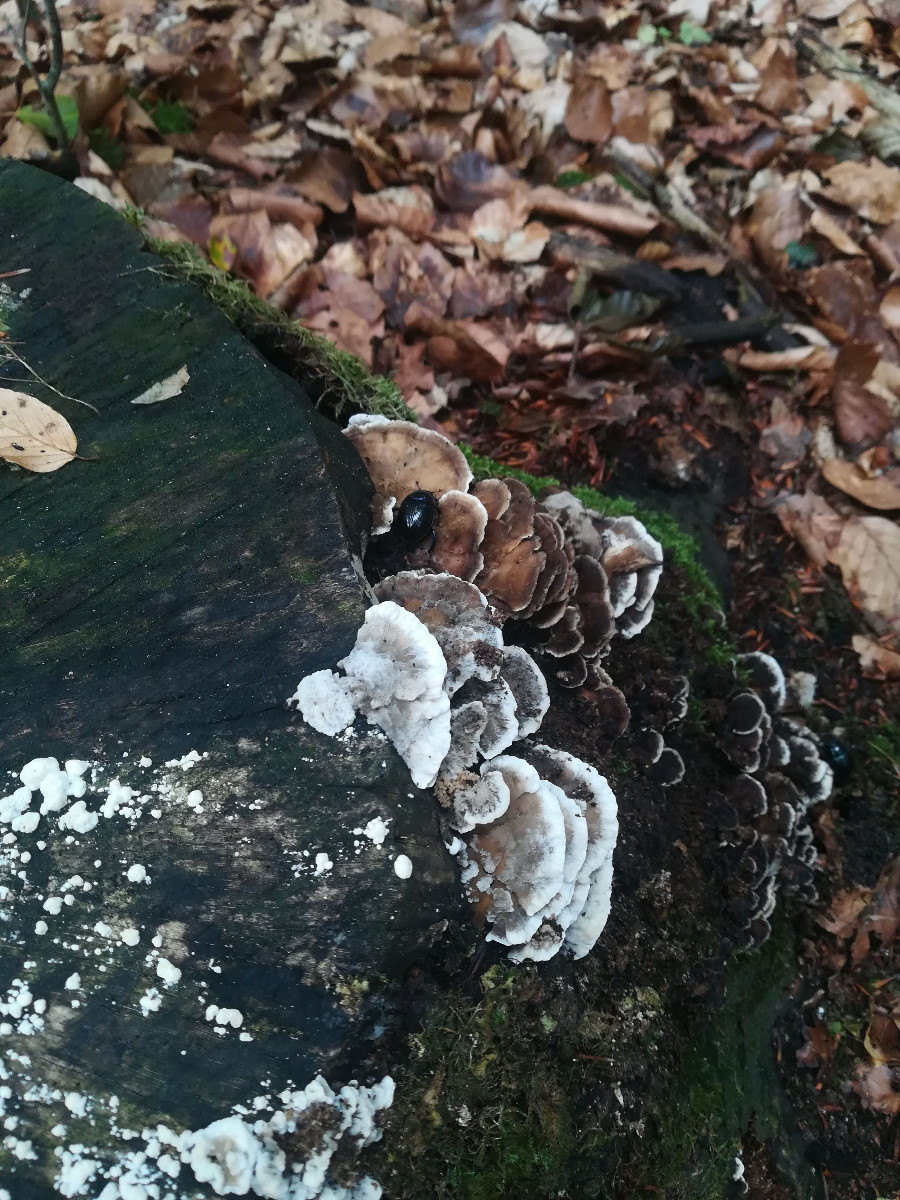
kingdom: Fungi
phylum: Basidiomycota
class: Agaricomycetes
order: Polyporales
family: Phanerochaetaceae
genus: Bjerkandera
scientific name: Bjerkandera adusta
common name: sveden sodporesvamp
